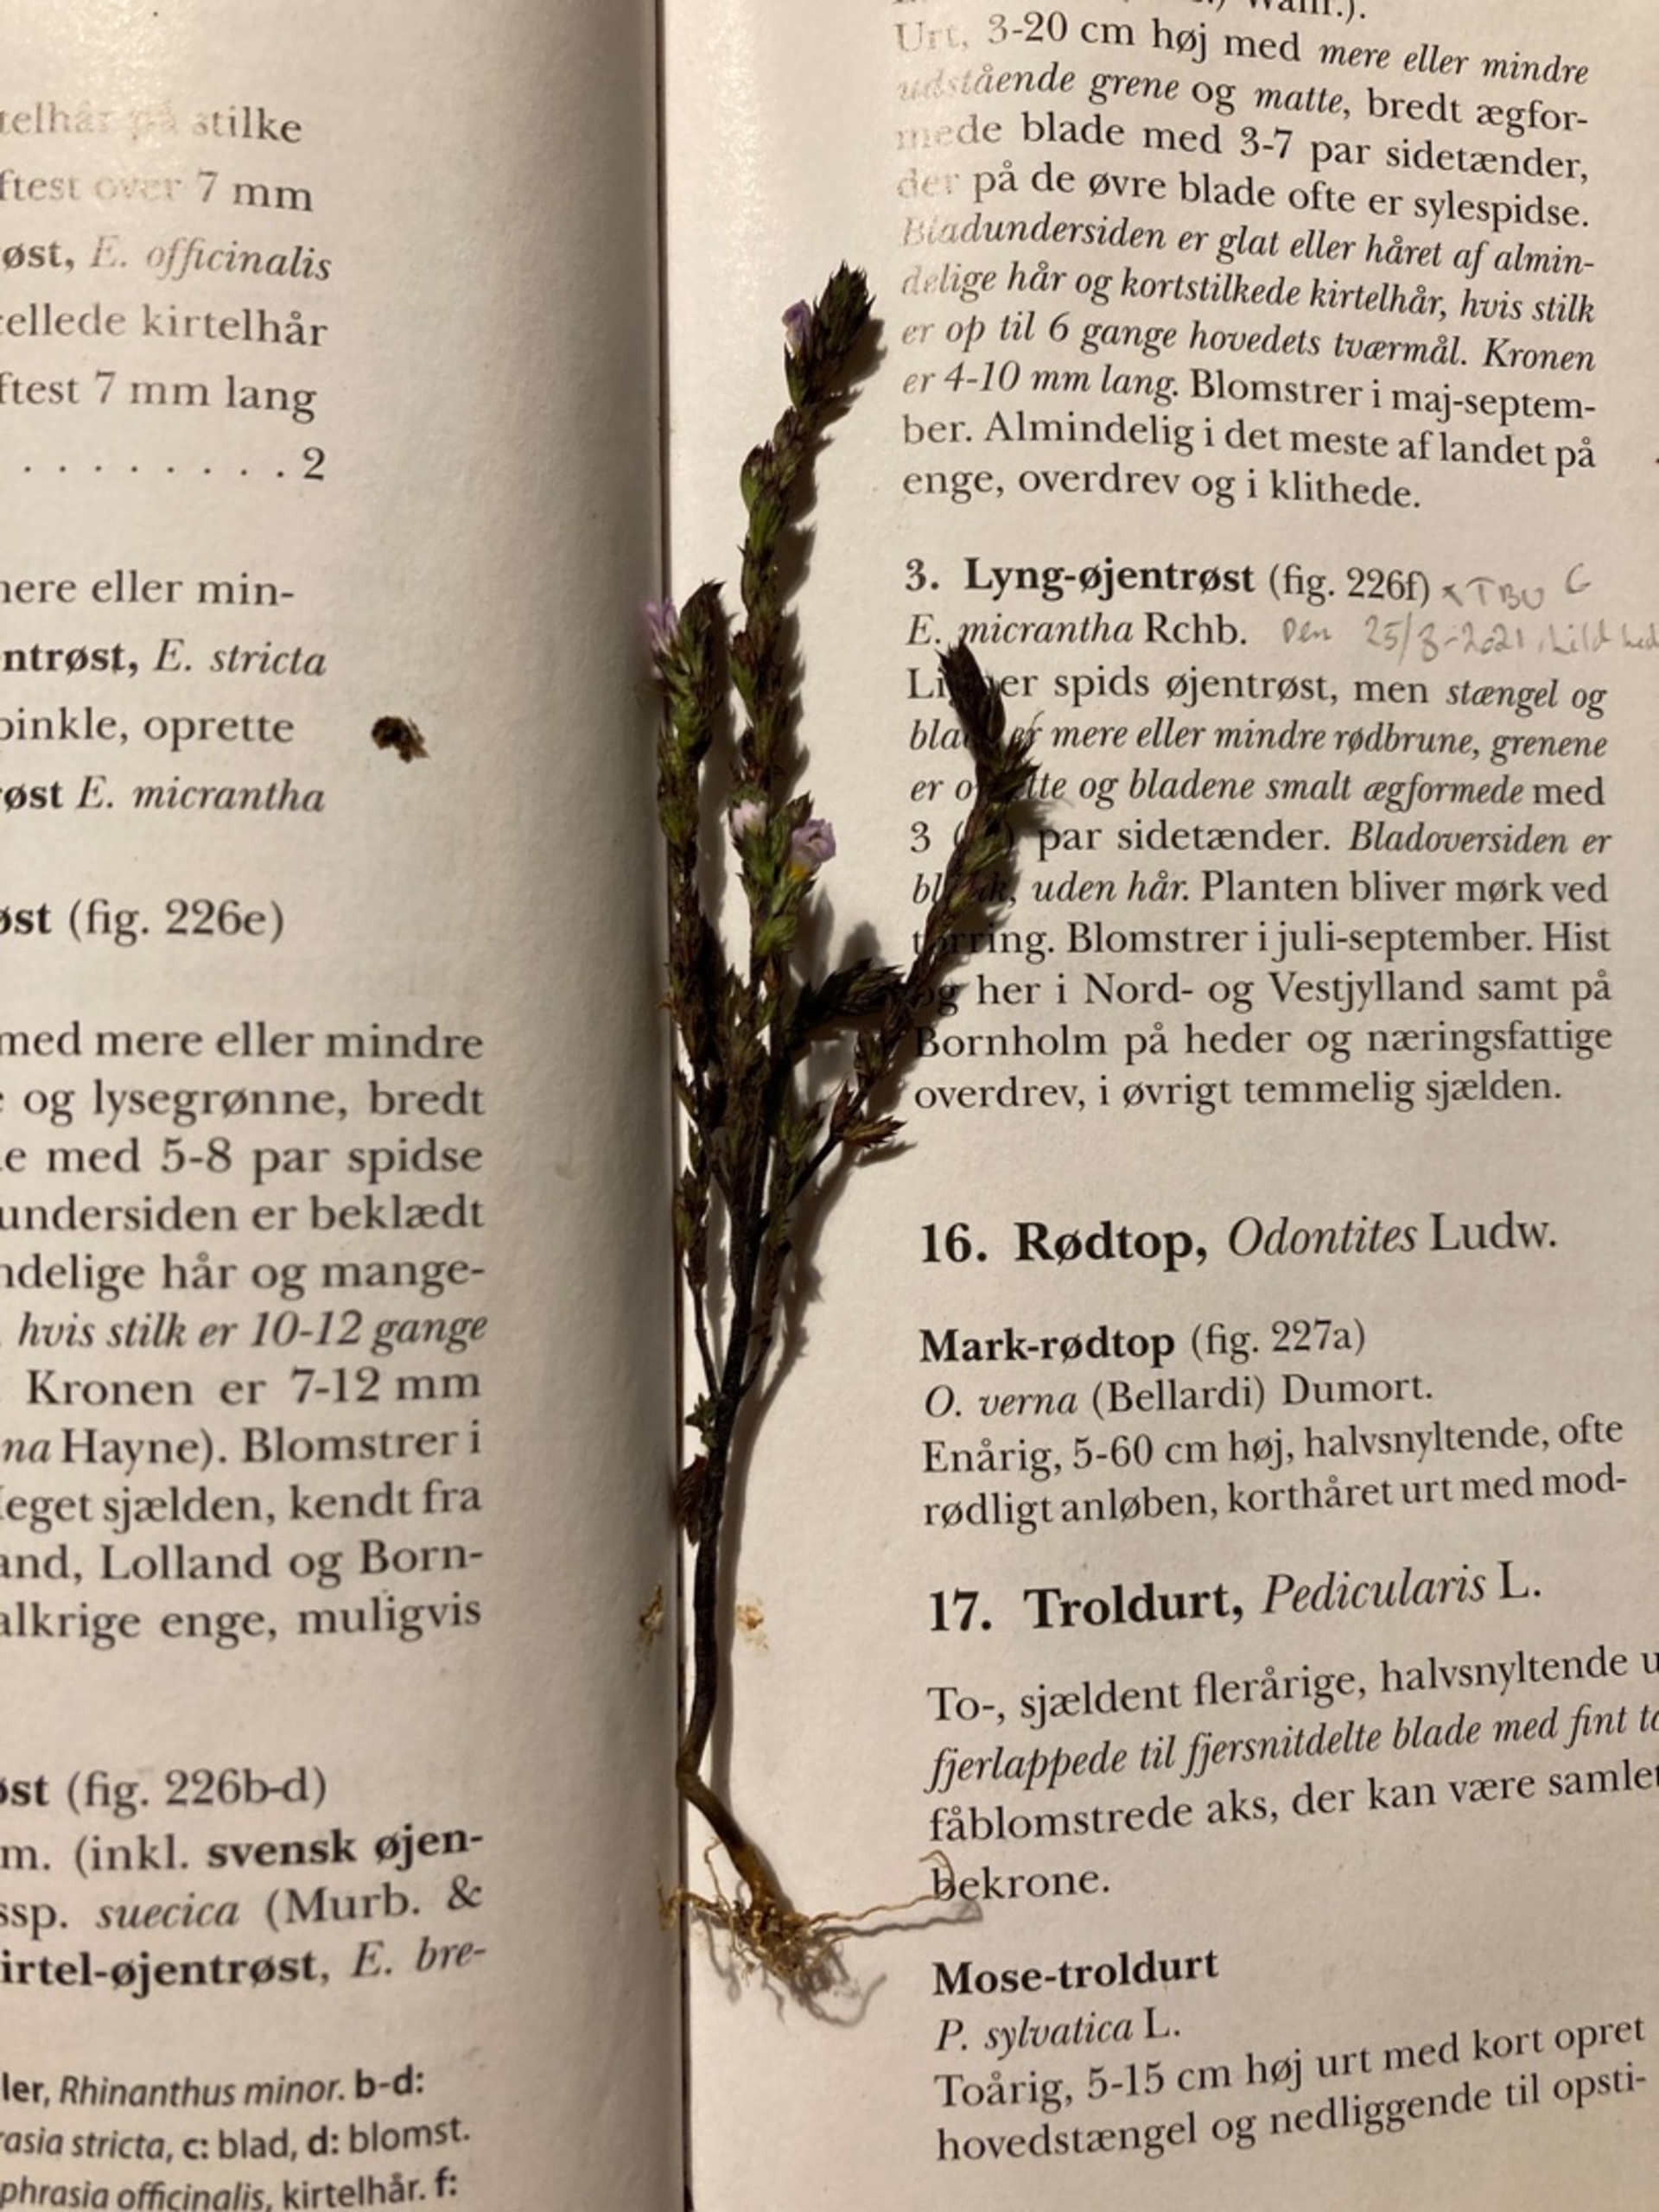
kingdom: Plantae
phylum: Tracheophyta
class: Magnoliopsida
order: Lamiales
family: Orobanchaceae
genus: Euphrasia
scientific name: Euphrasia
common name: Øjentrøstslægten
